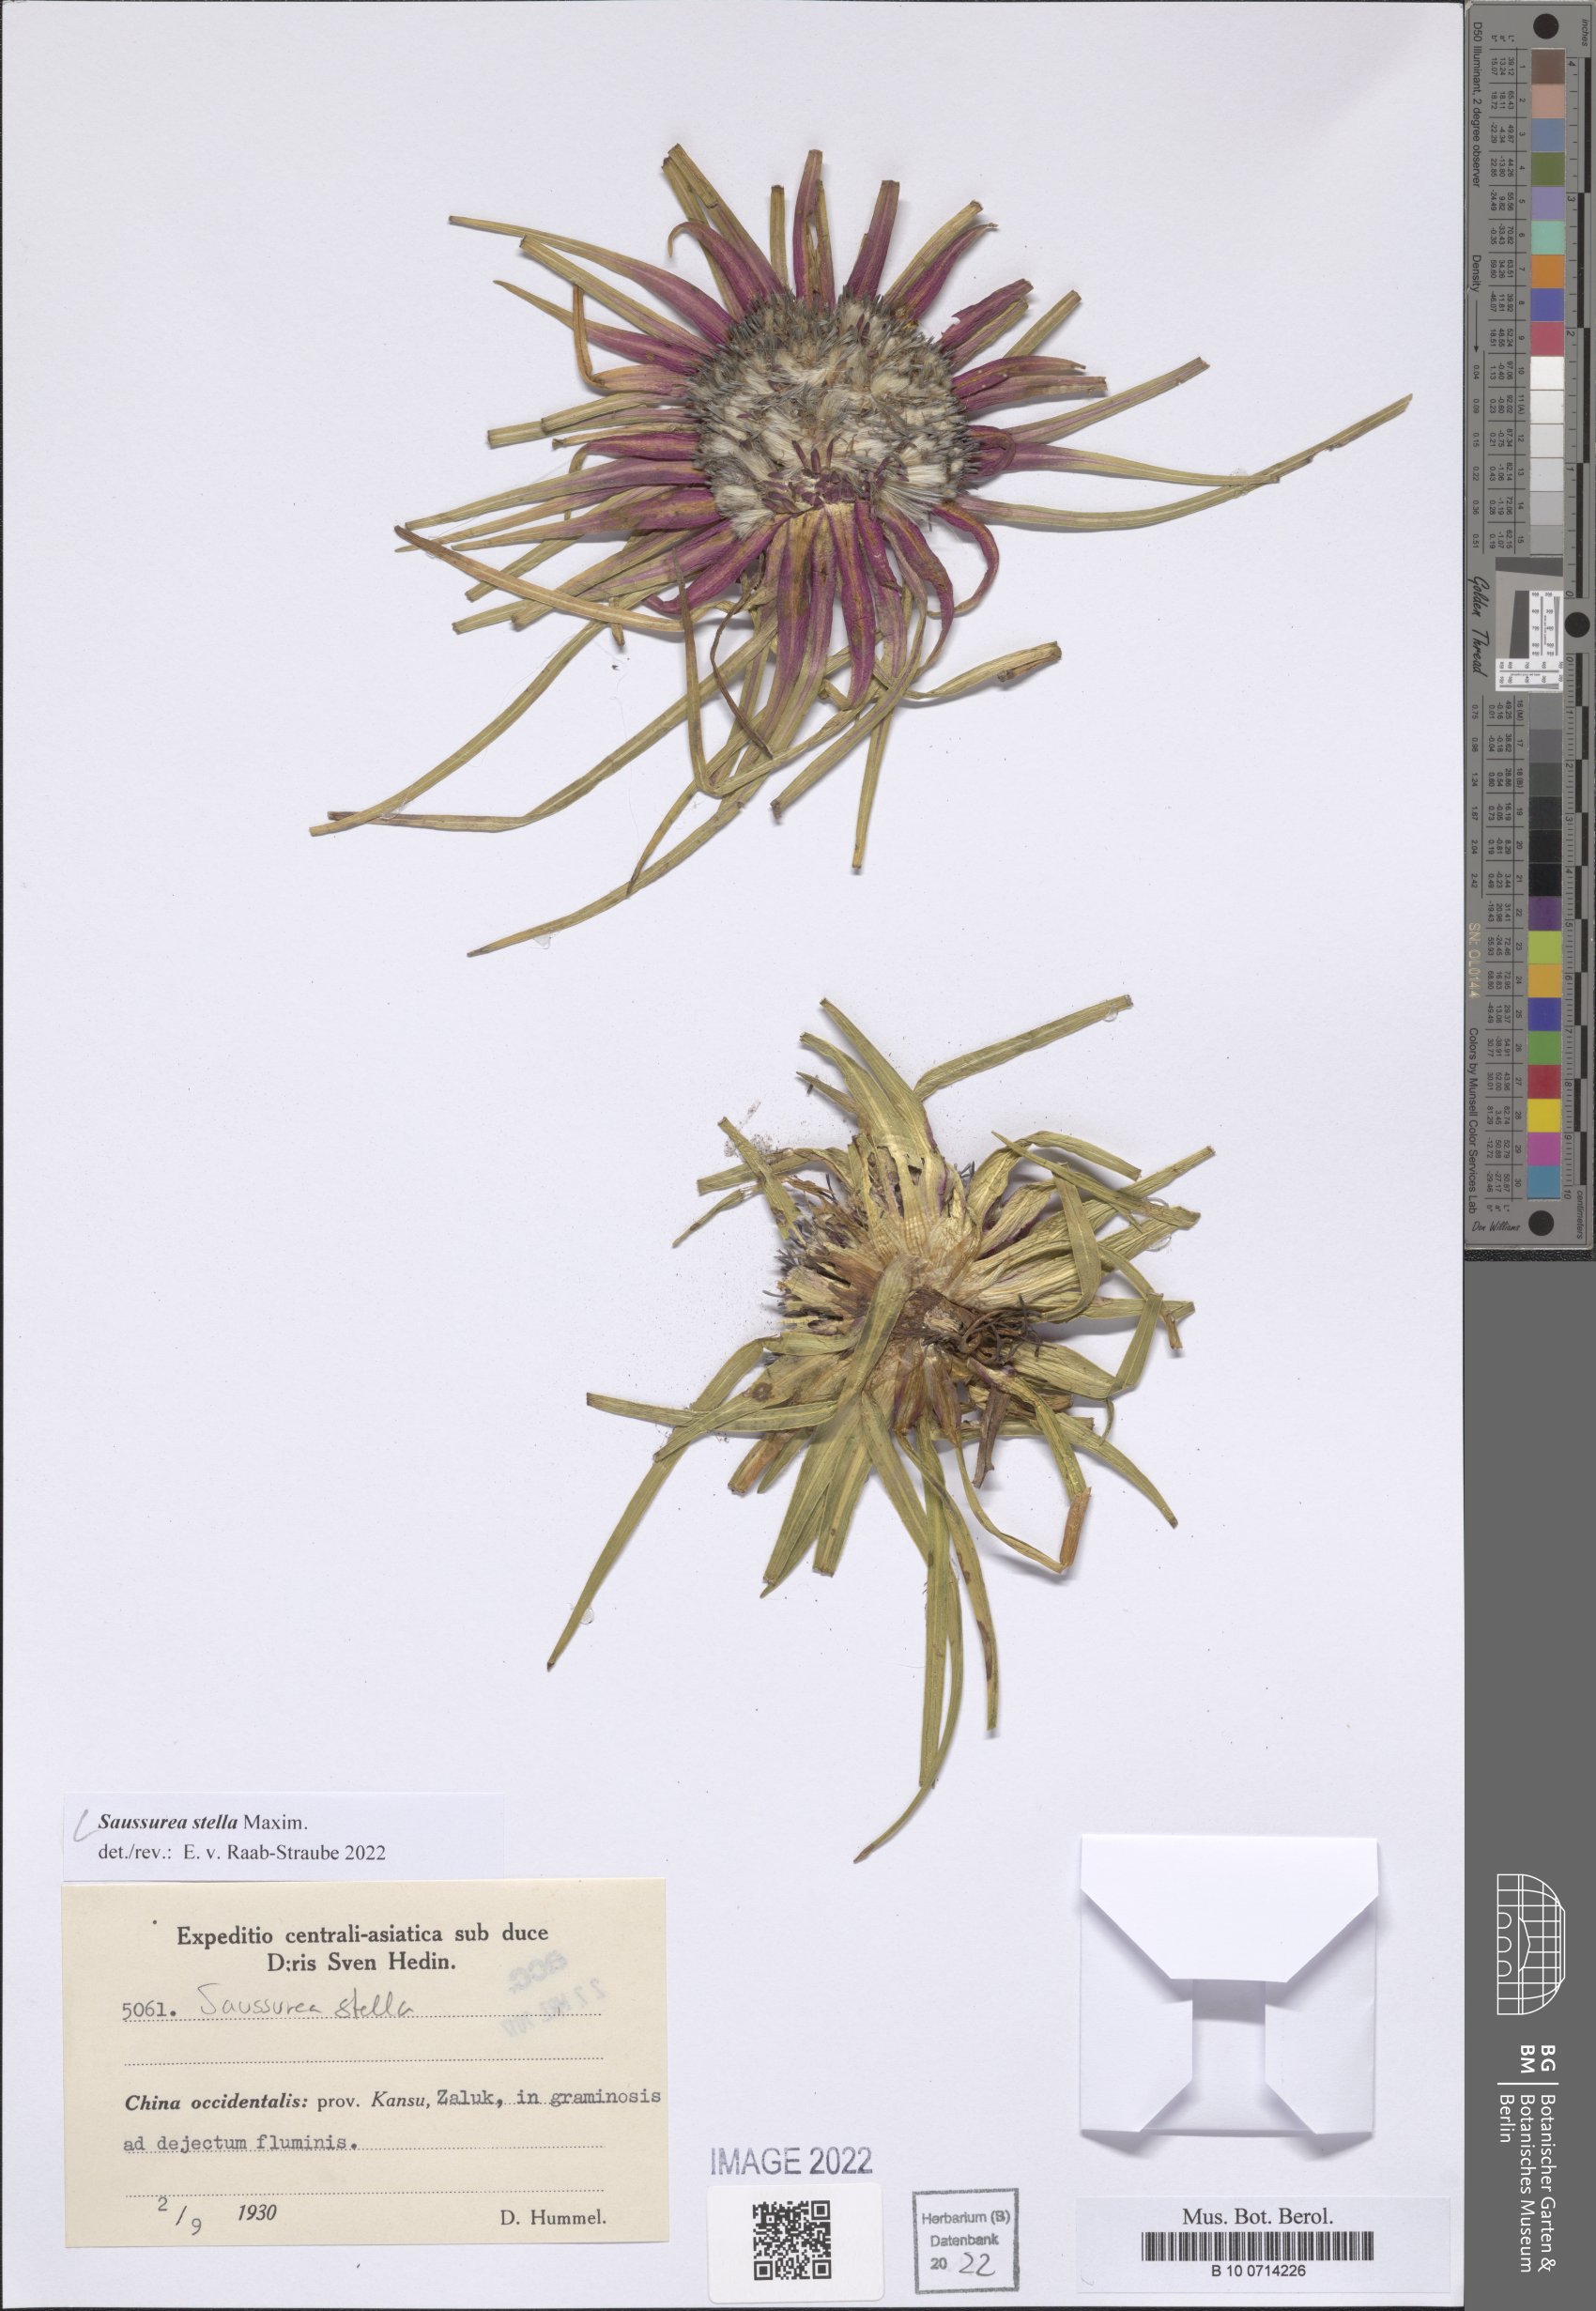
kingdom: Plantae
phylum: Tracheophyta
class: Magnoliopsida
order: Asterales
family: Asteraceae
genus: Saussurea
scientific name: Saussurea stella
